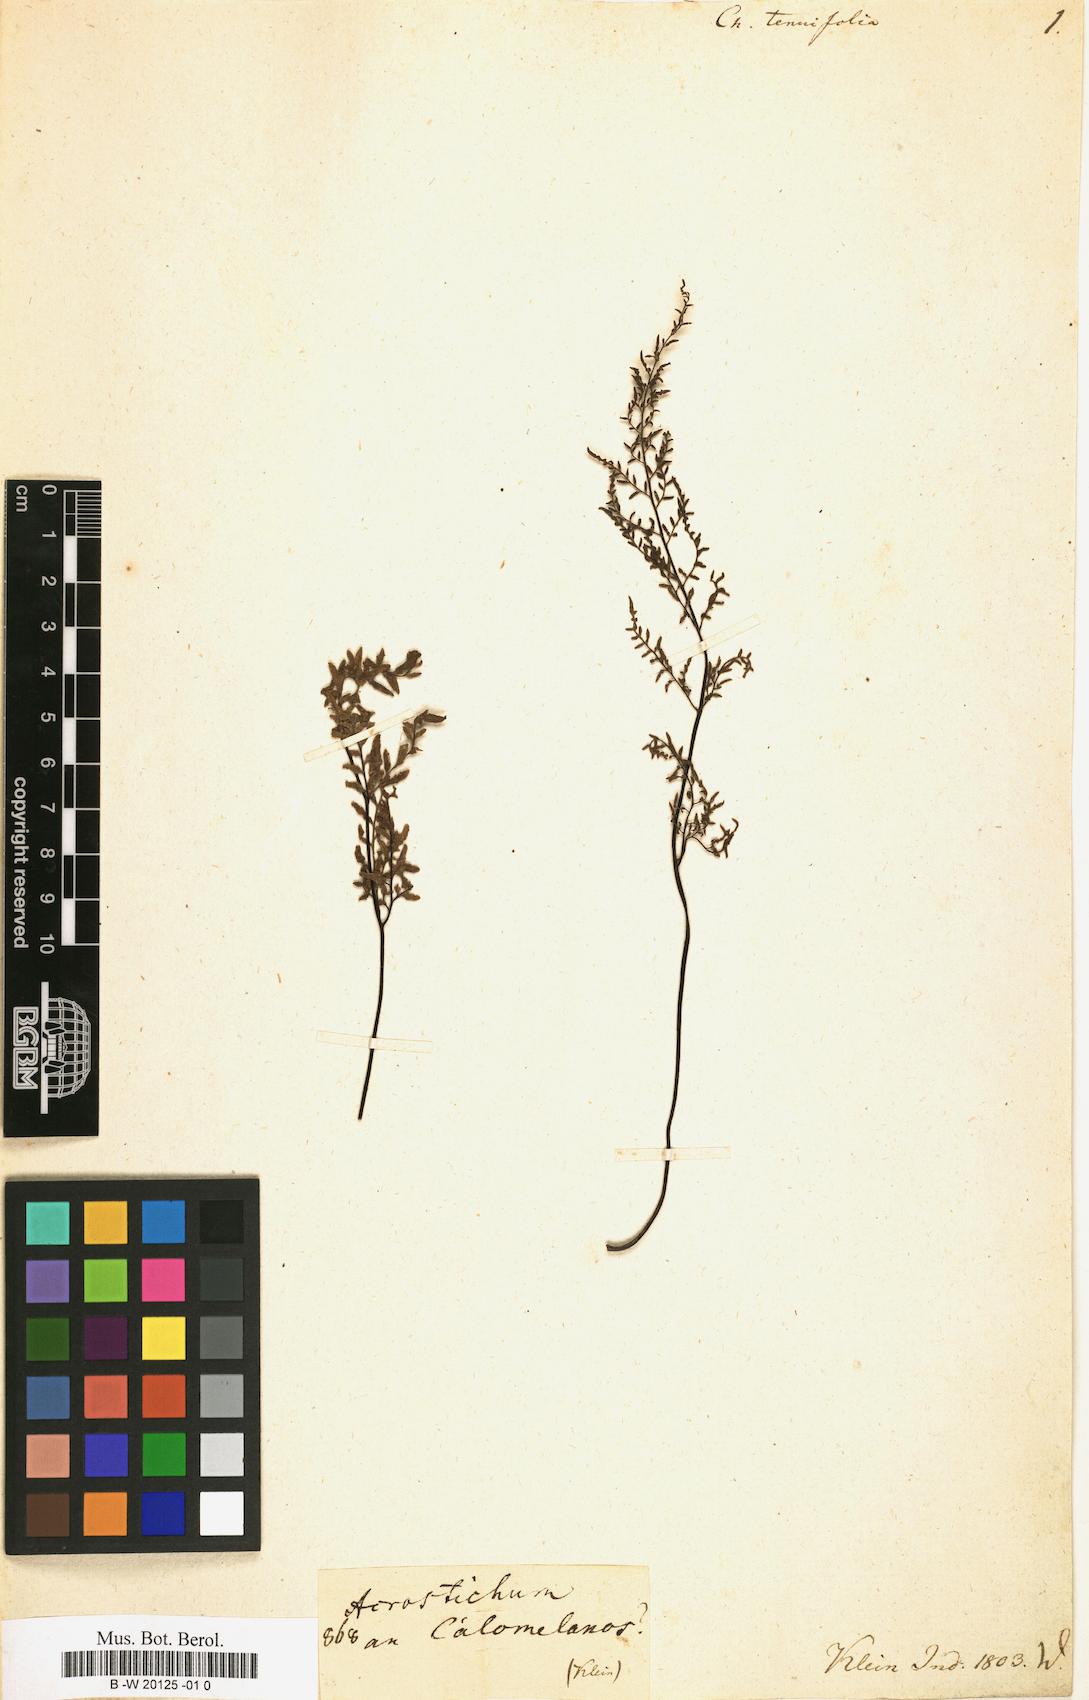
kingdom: Plantae
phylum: Tracheophyta
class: Polypodiopsida
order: Polypodiales
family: Pteridaceae
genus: Cheilanthes
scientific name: Cheilanthes tenuifolia
